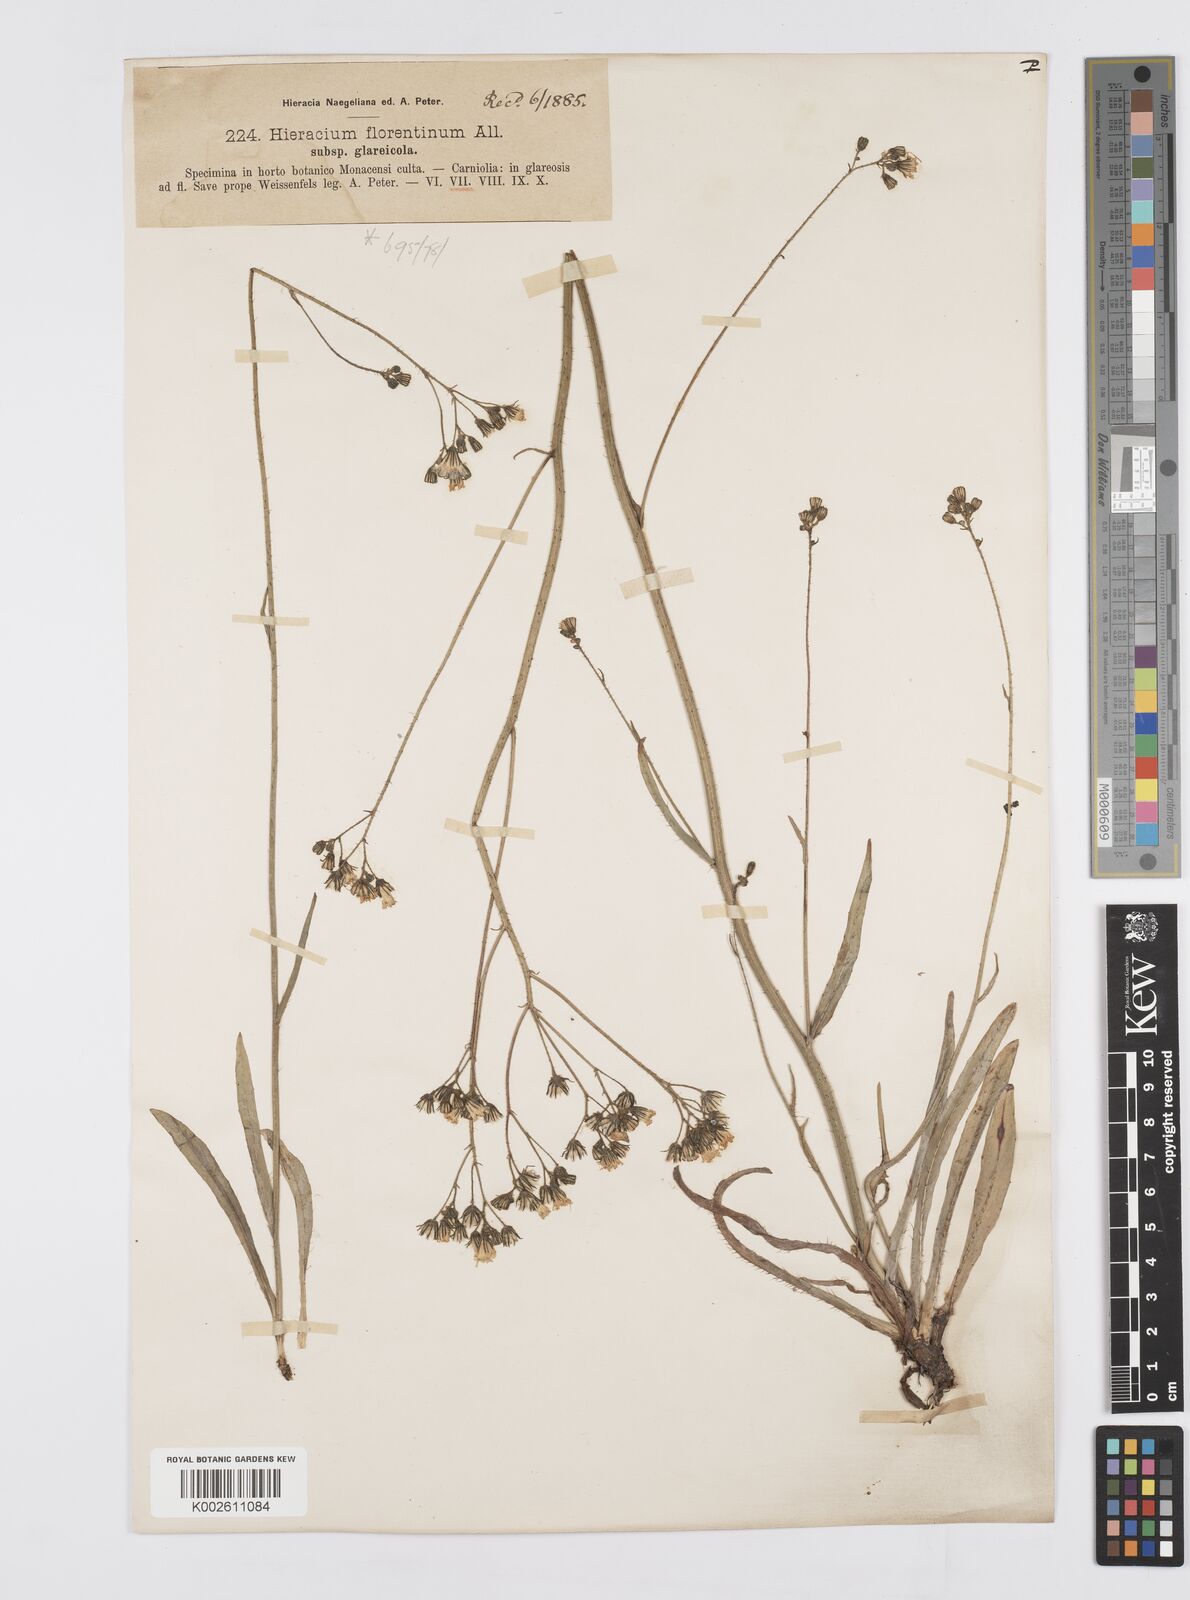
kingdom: Plantae
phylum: Tracheophyta
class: Magnoliopsida
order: Asterales
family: Asteraceae
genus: Pilosella
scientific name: Pilosella piloselloides
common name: Glaucous king-devil
